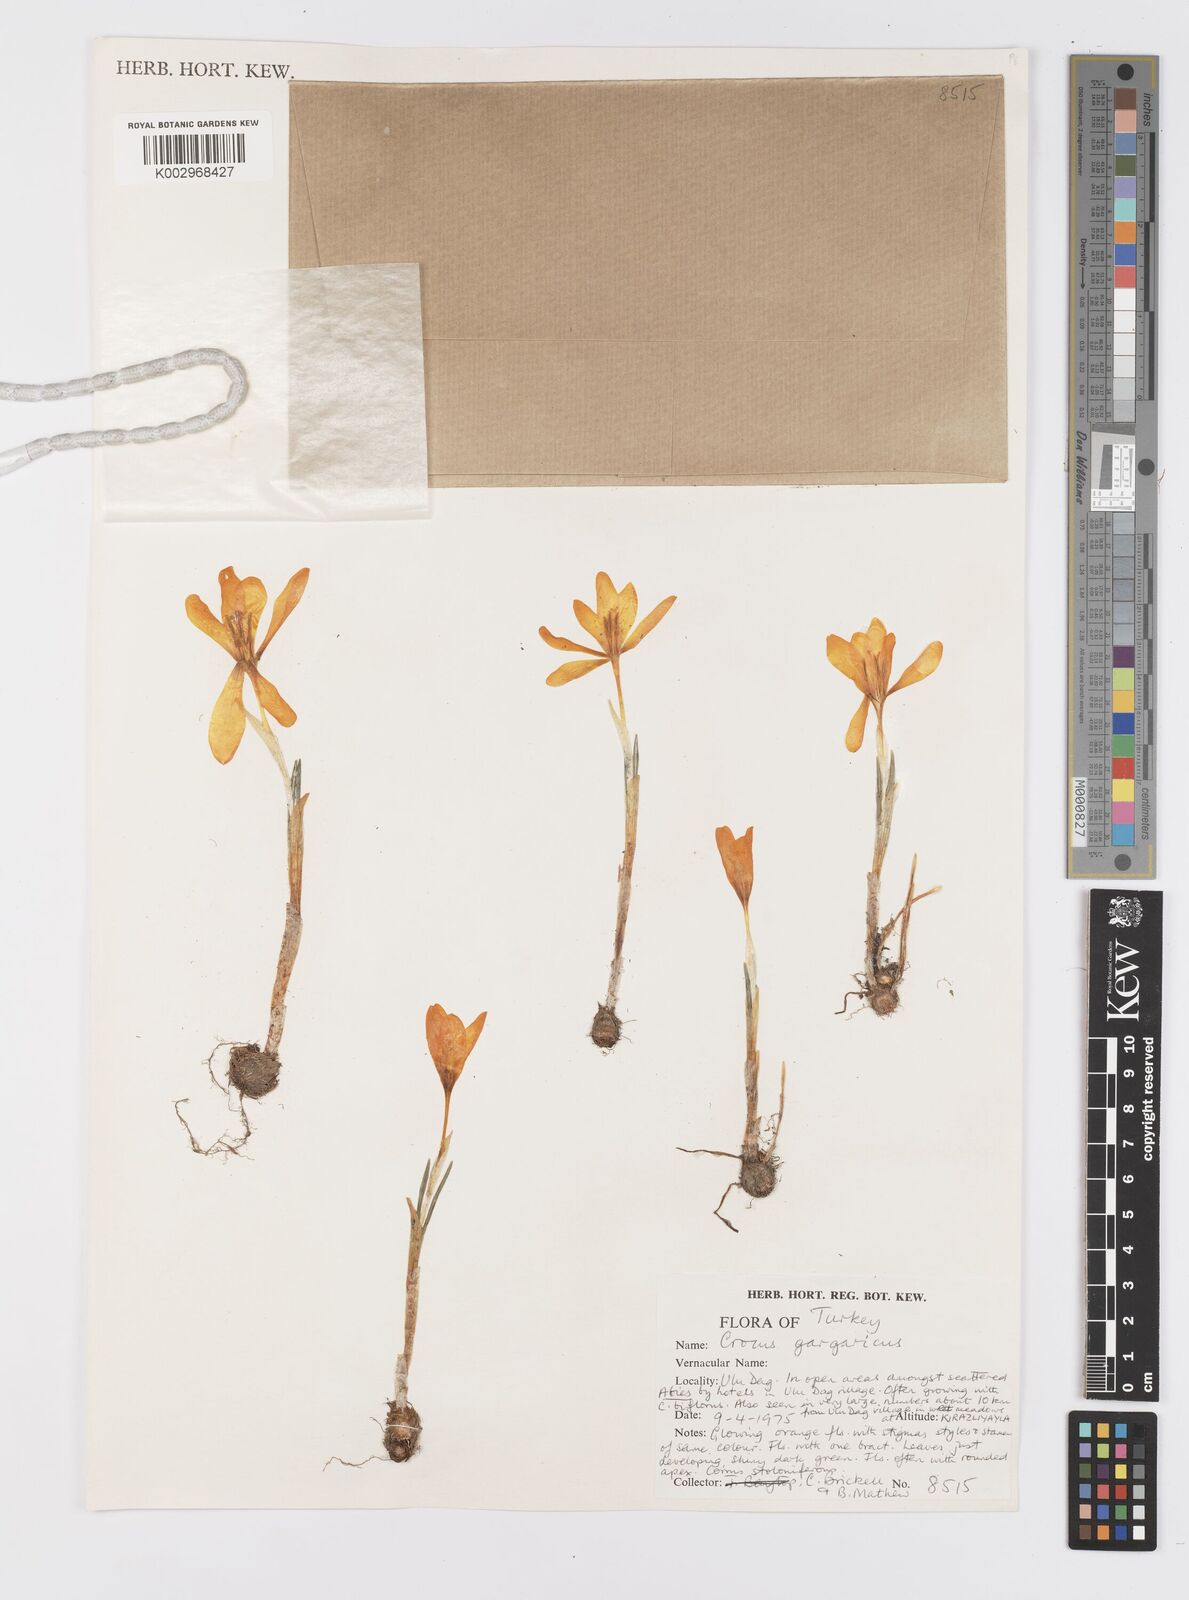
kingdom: Plantae
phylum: Tracheophyta
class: Liliopsida
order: Asparagales
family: Iridaceae
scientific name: Iridaceae
